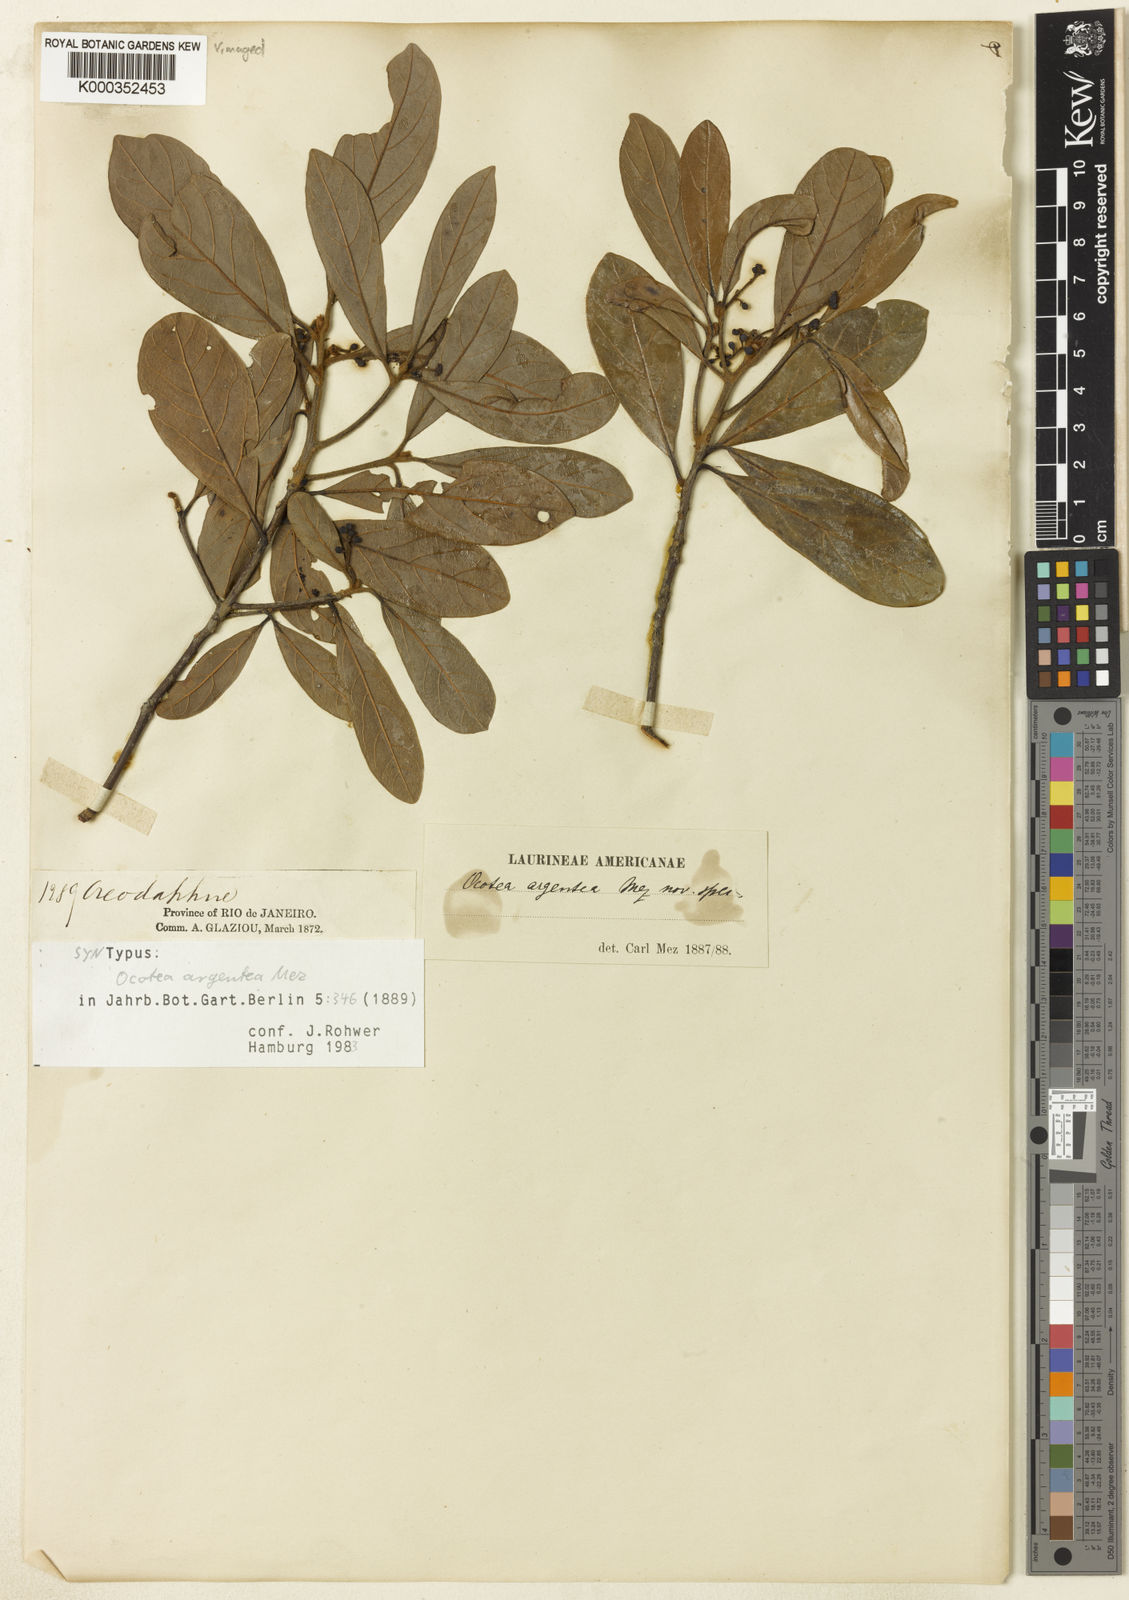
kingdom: Plantae
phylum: Tracheophyta
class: Magnoliopsida
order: Laurales
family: Lauraceae
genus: Ocotea
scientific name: Ocotea argentea
